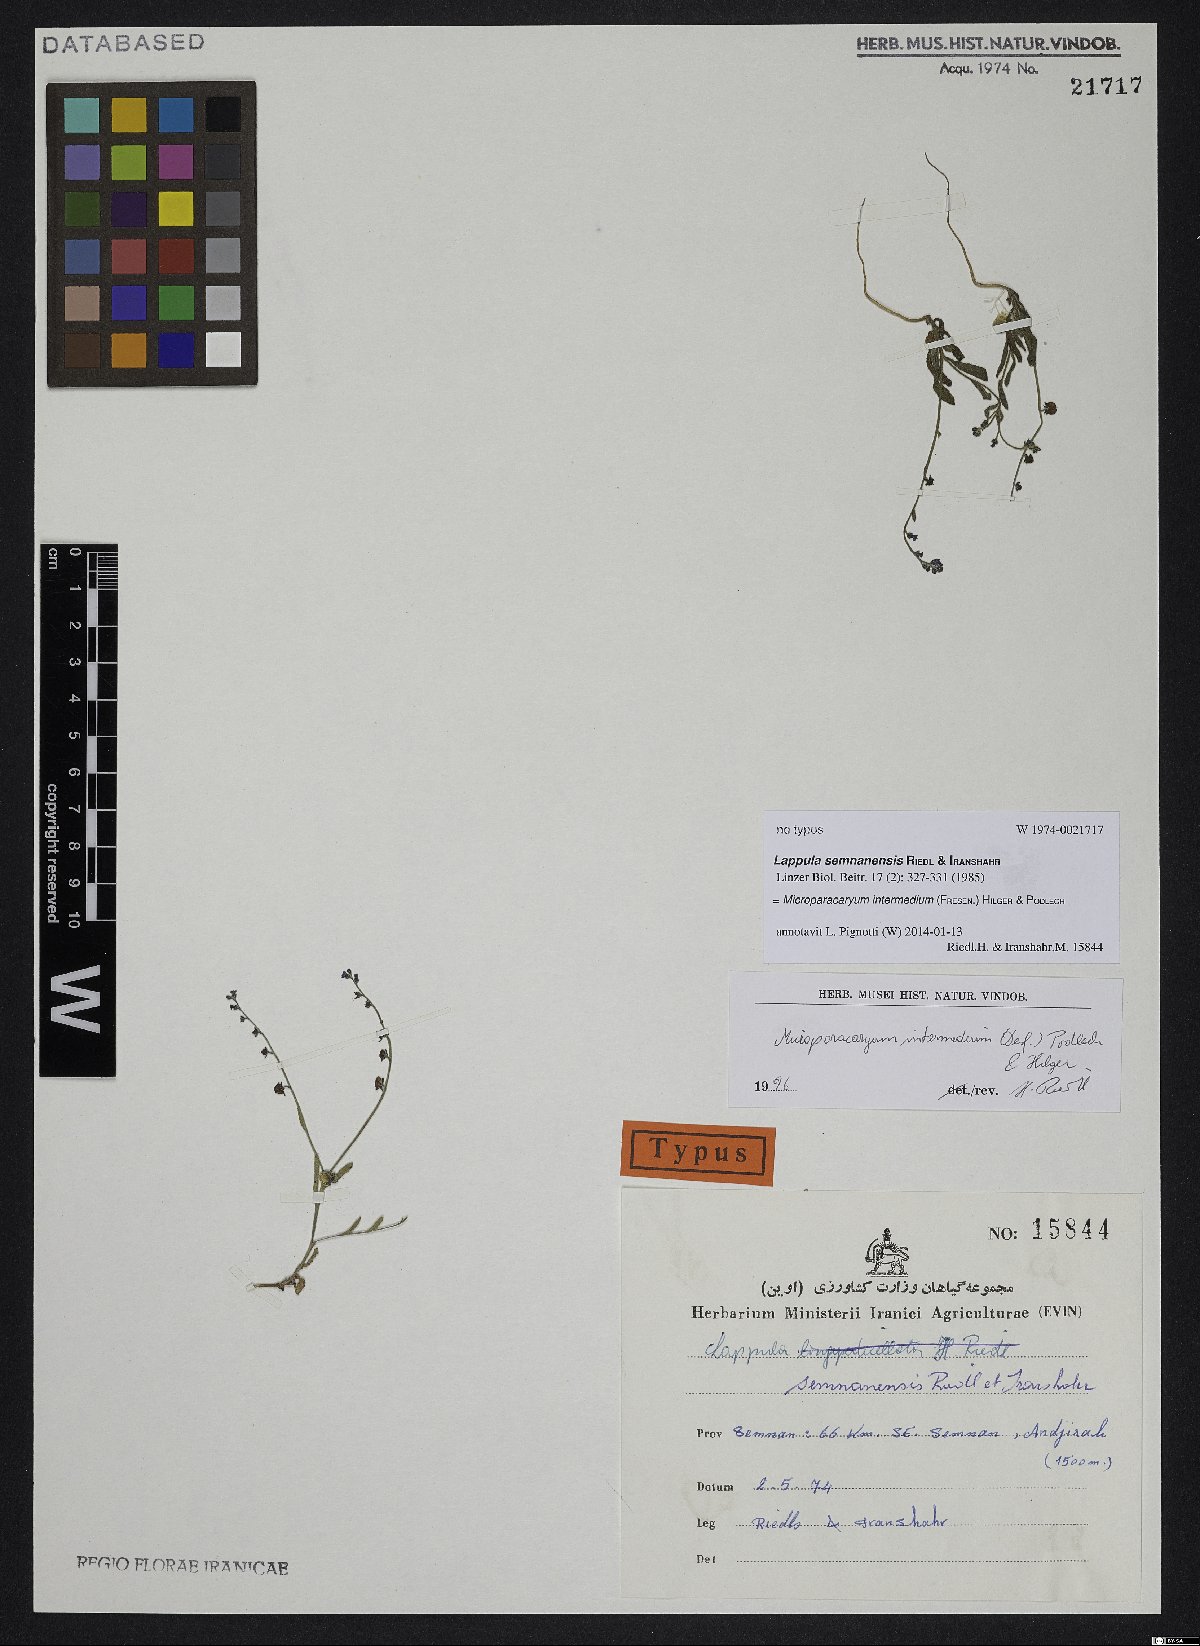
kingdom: Plantae
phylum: Tracheophyta
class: Magnoliopsida
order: Boraginales
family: Boraginaceae
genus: Microparacaryum
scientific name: Microparacaryum intermedium
